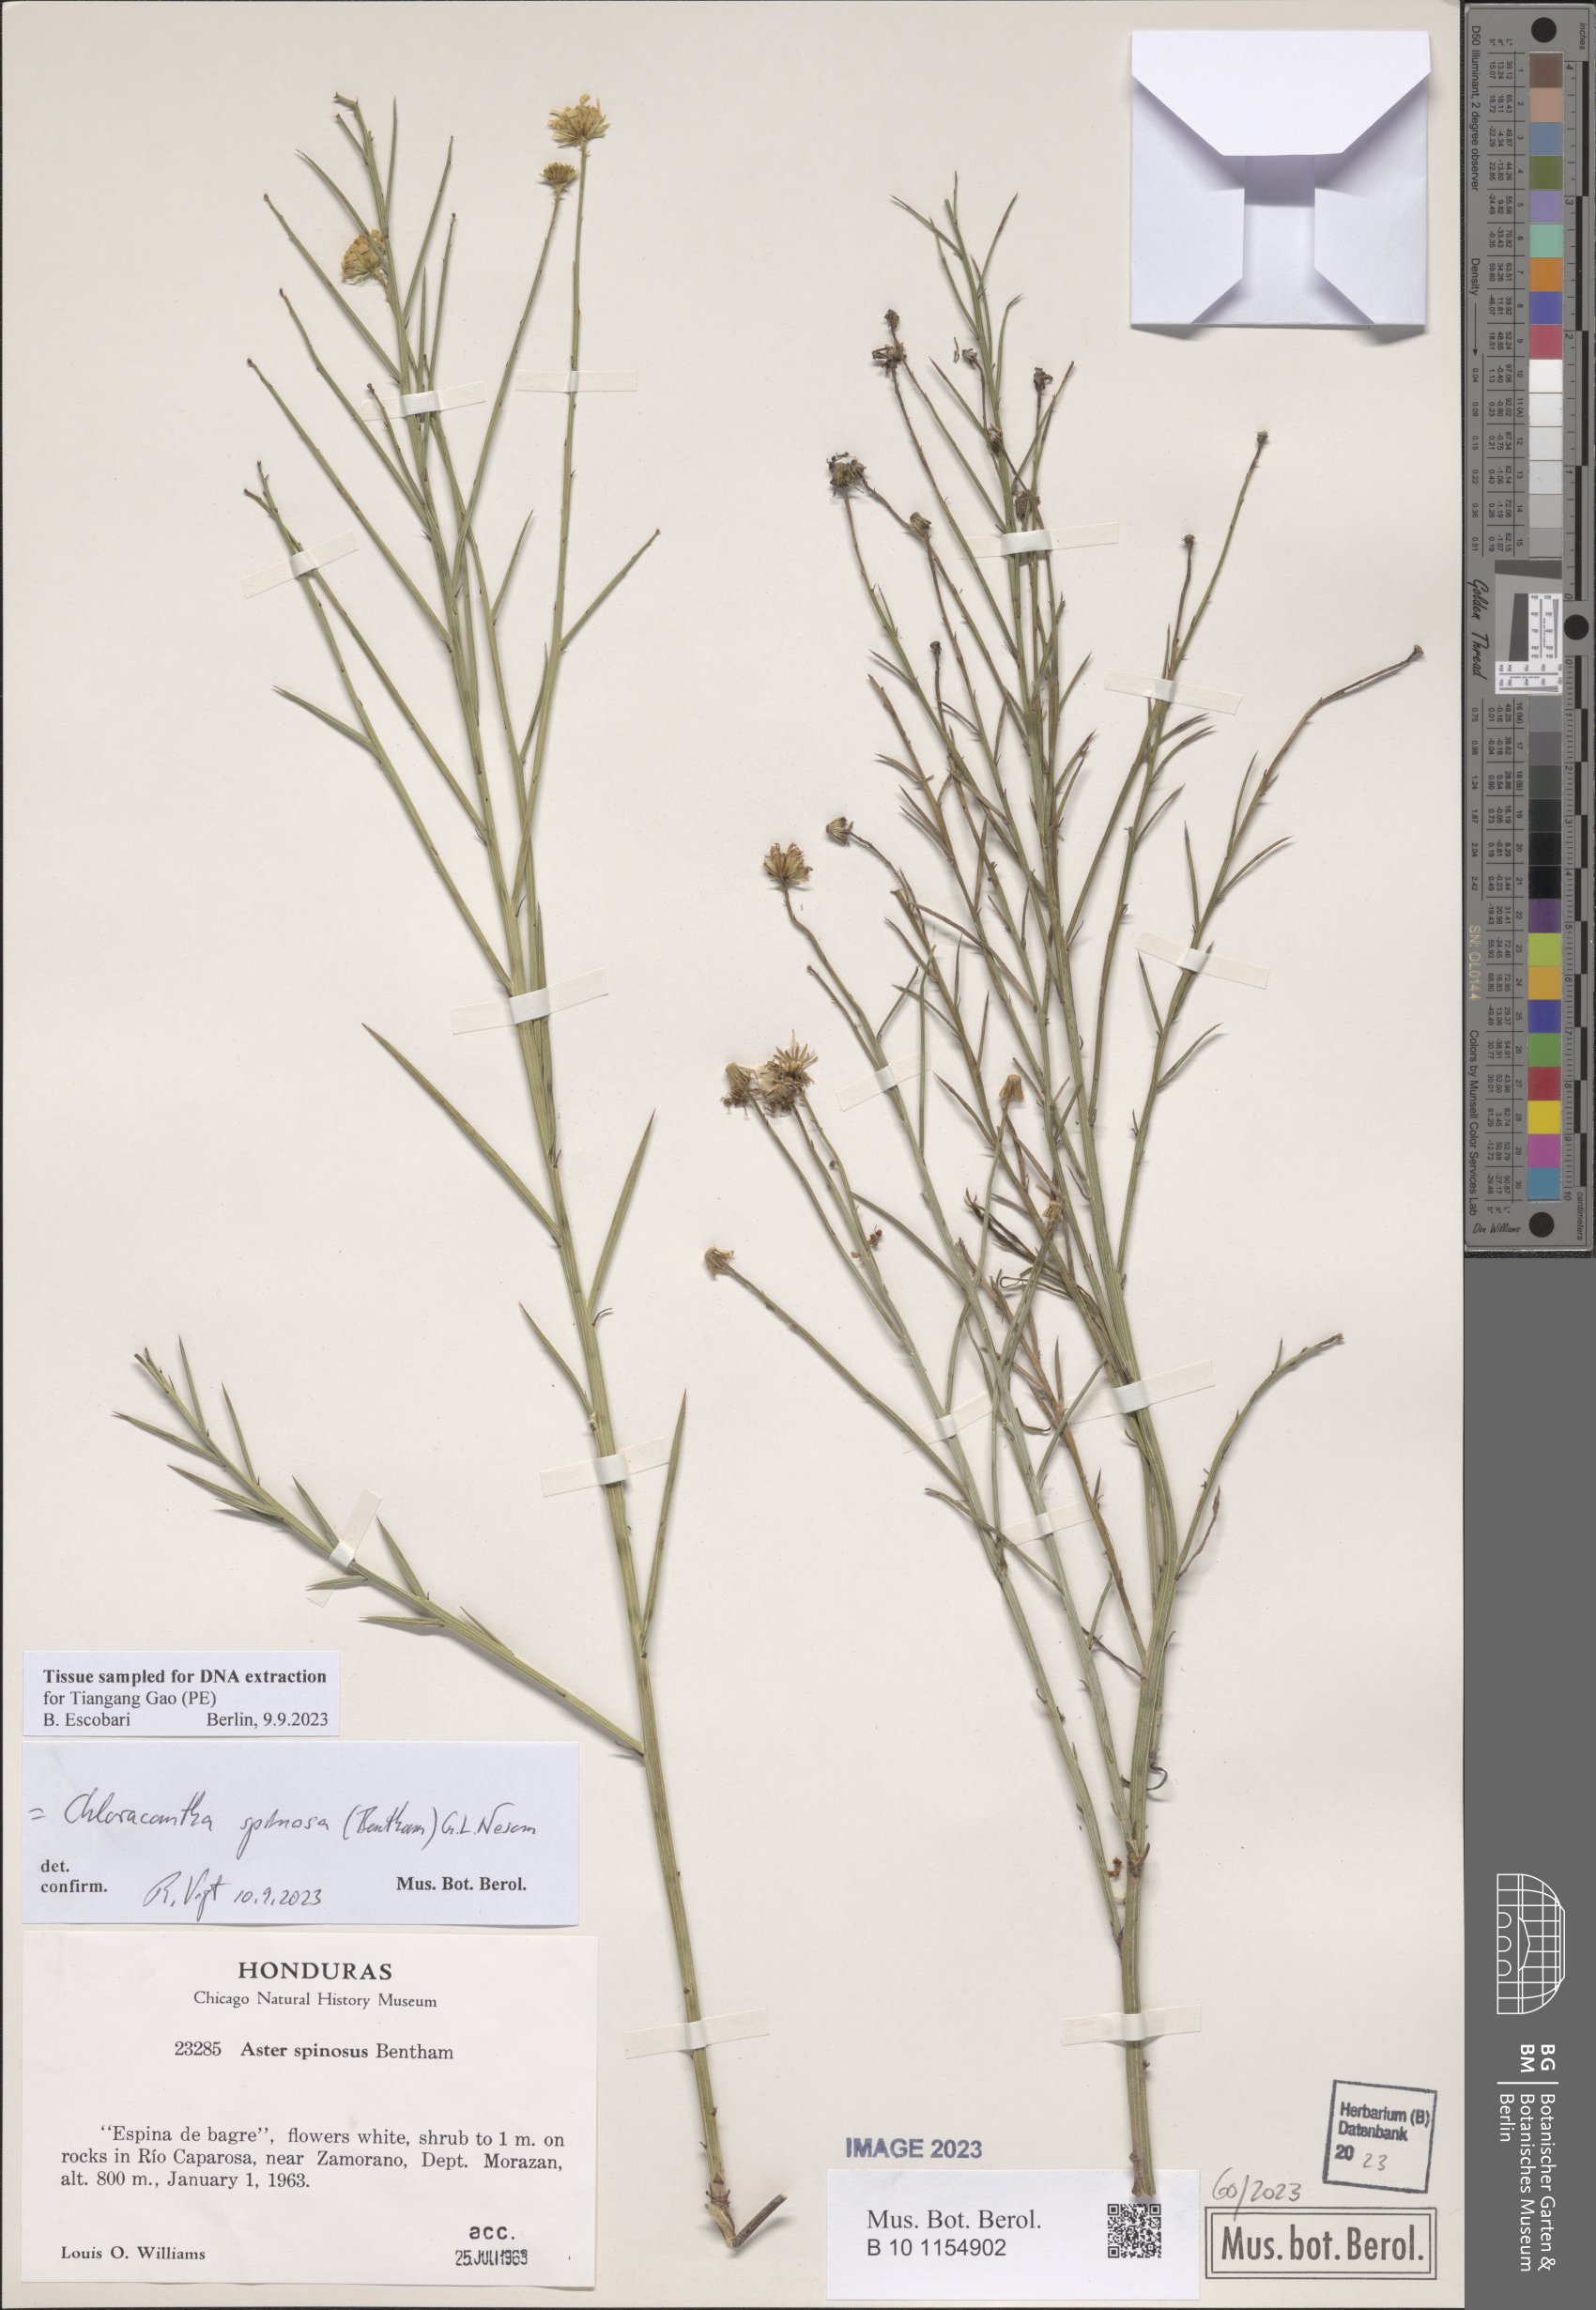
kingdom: Plantae
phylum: Tracheophyta
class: Magnoliopsida
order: Asterales
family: Asteraceae
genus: Chloracantha
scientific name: Chloracantha spinosa
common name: Mexican devilweed
